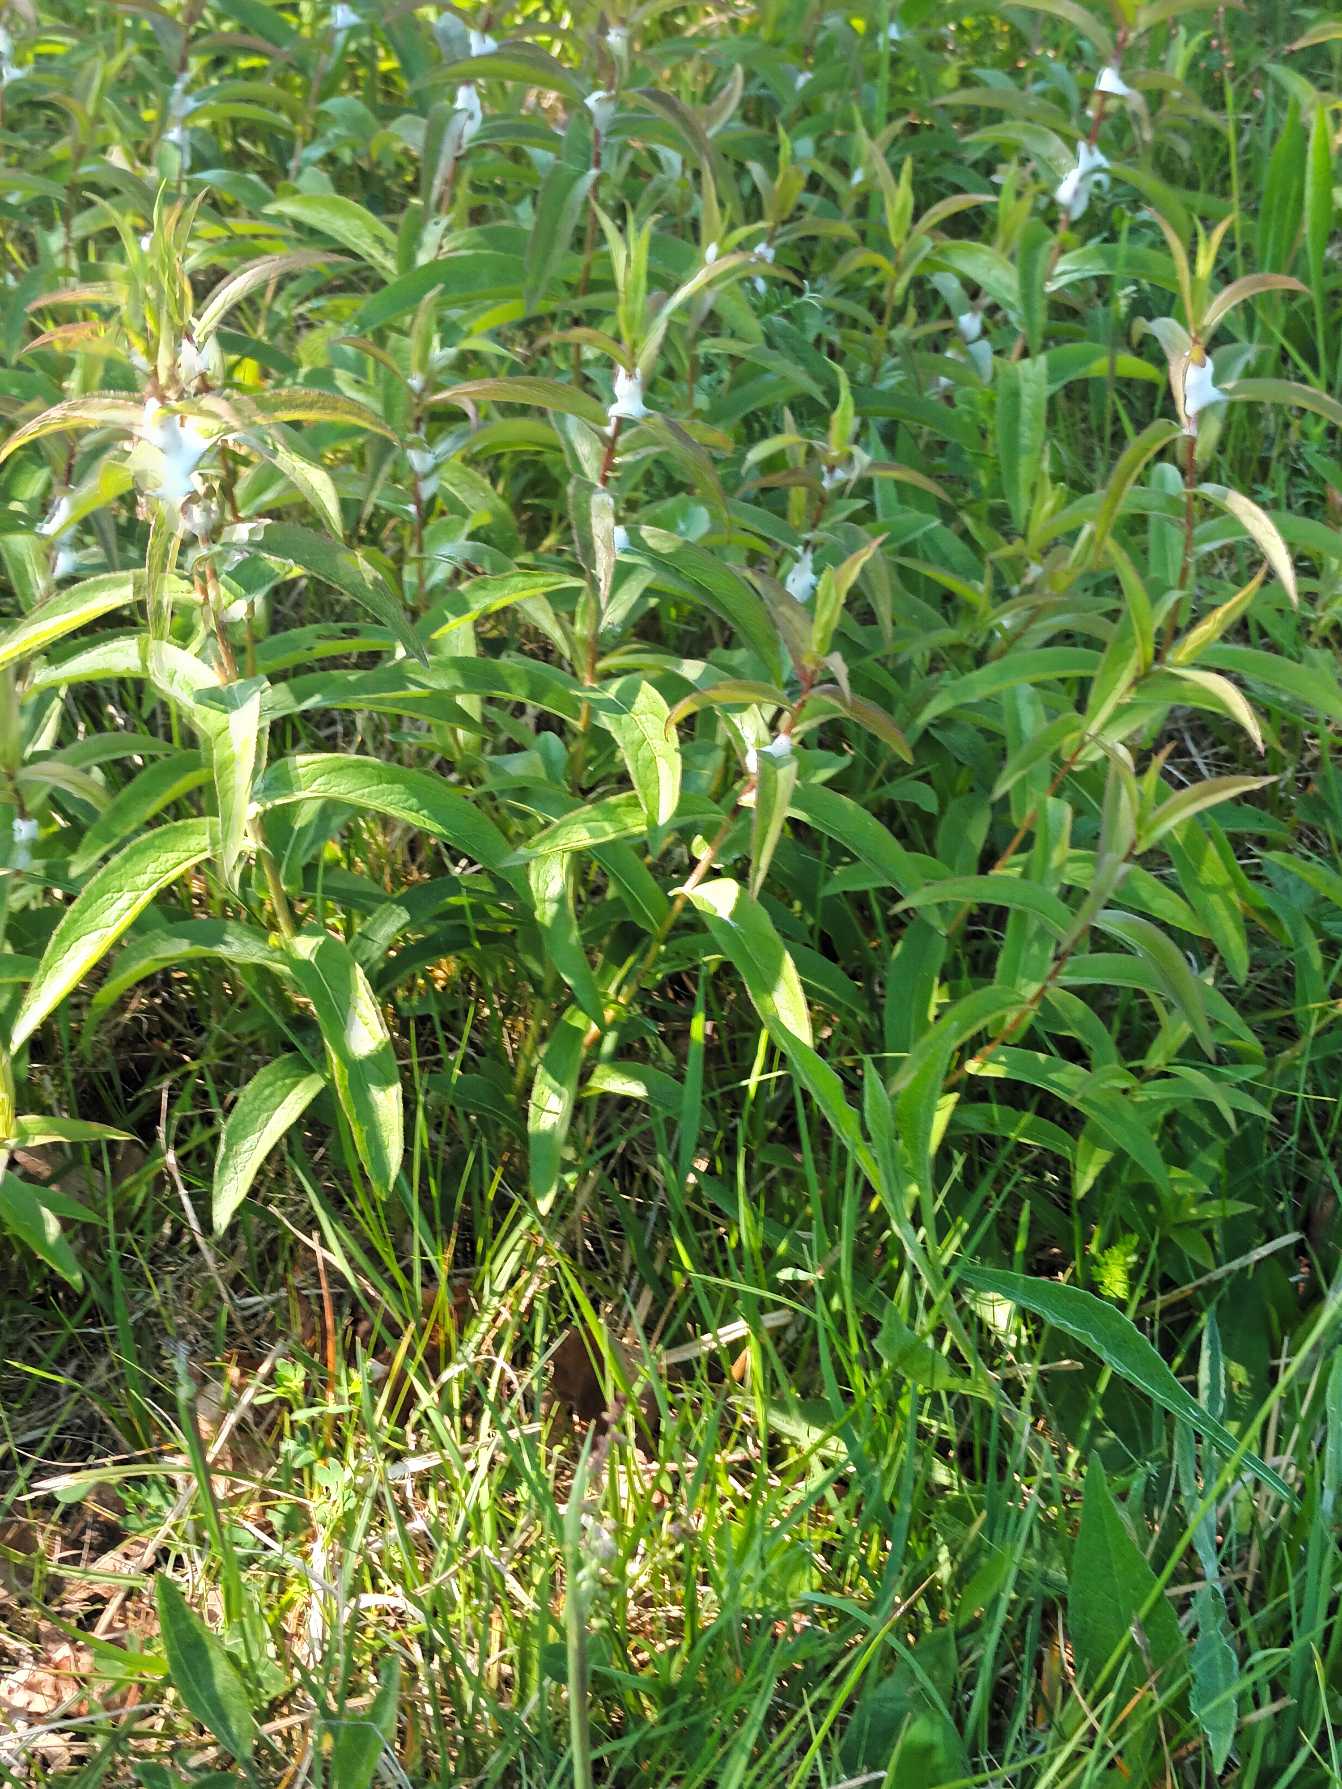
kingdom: Plantae
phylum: Tracheophyta
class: Magnoliopsida
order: Asterales
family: Asteraceae
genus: Pentanema
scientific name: Pentanema salicinum
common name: Pile-alant
